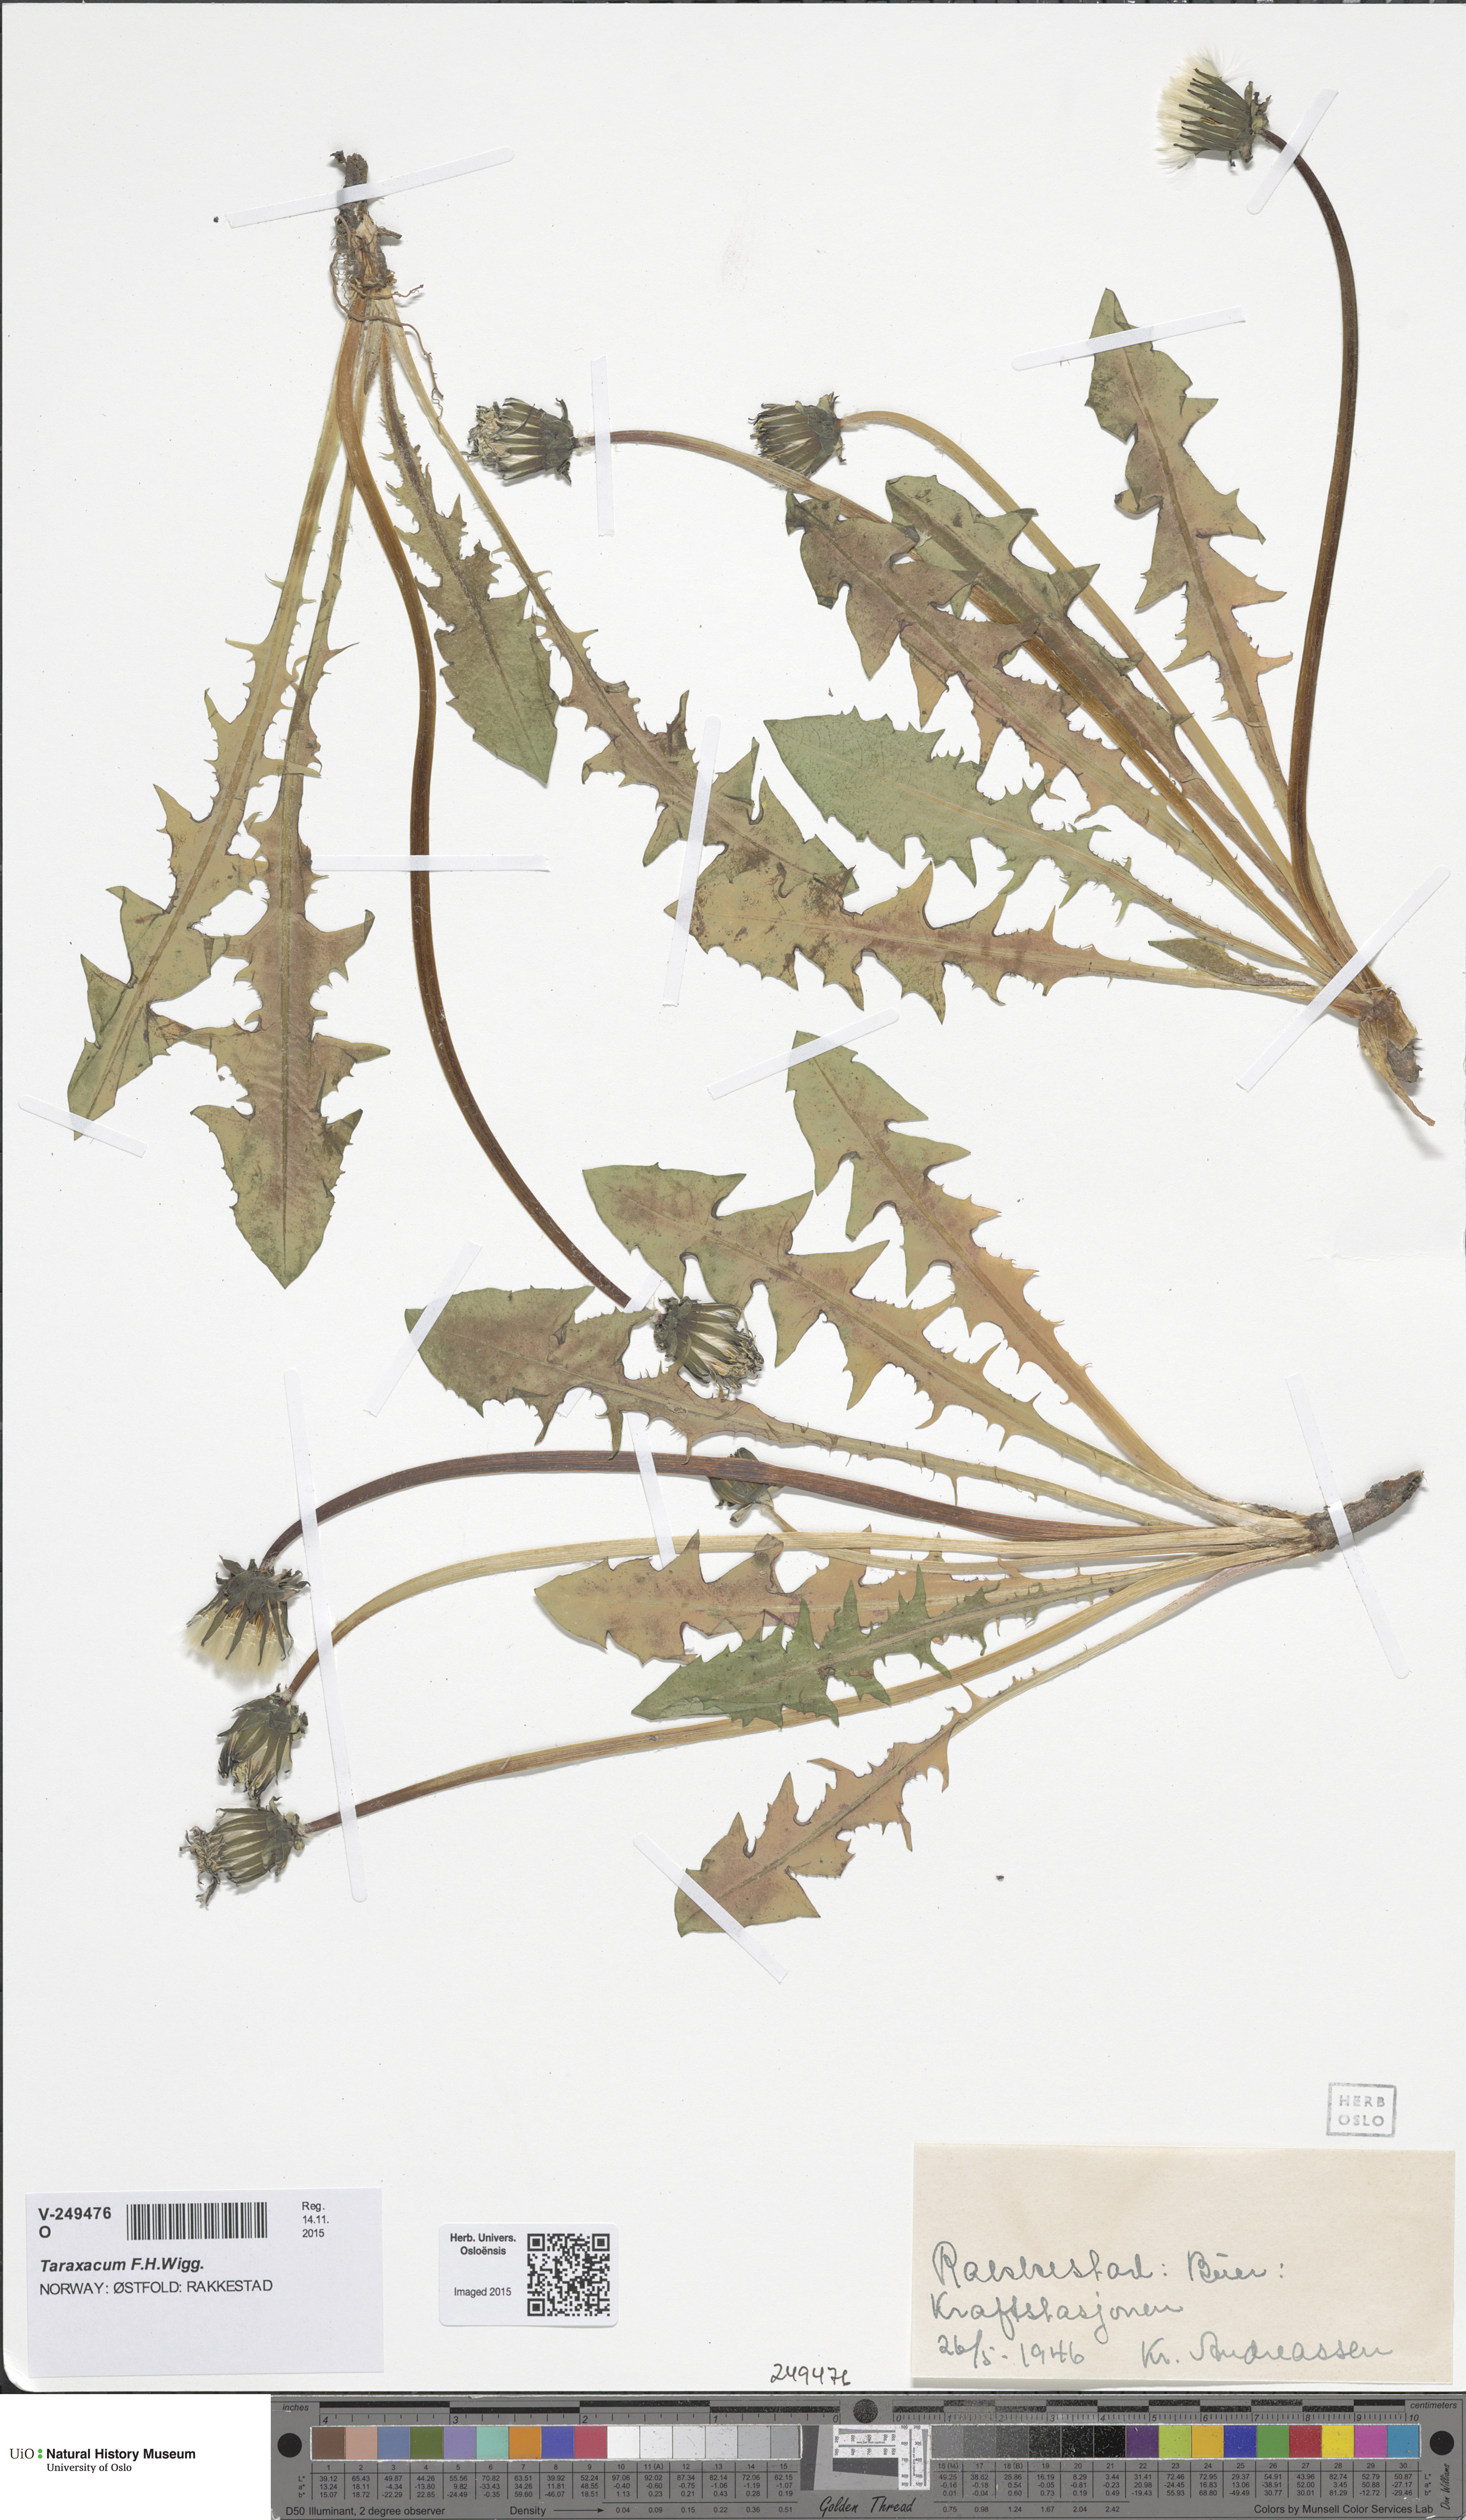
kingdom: Plantae
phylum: Tracheophyta
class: Magnoliopsida
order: Asterales
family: Asteraceae
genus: Taraxacum
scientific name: Taraxacum
